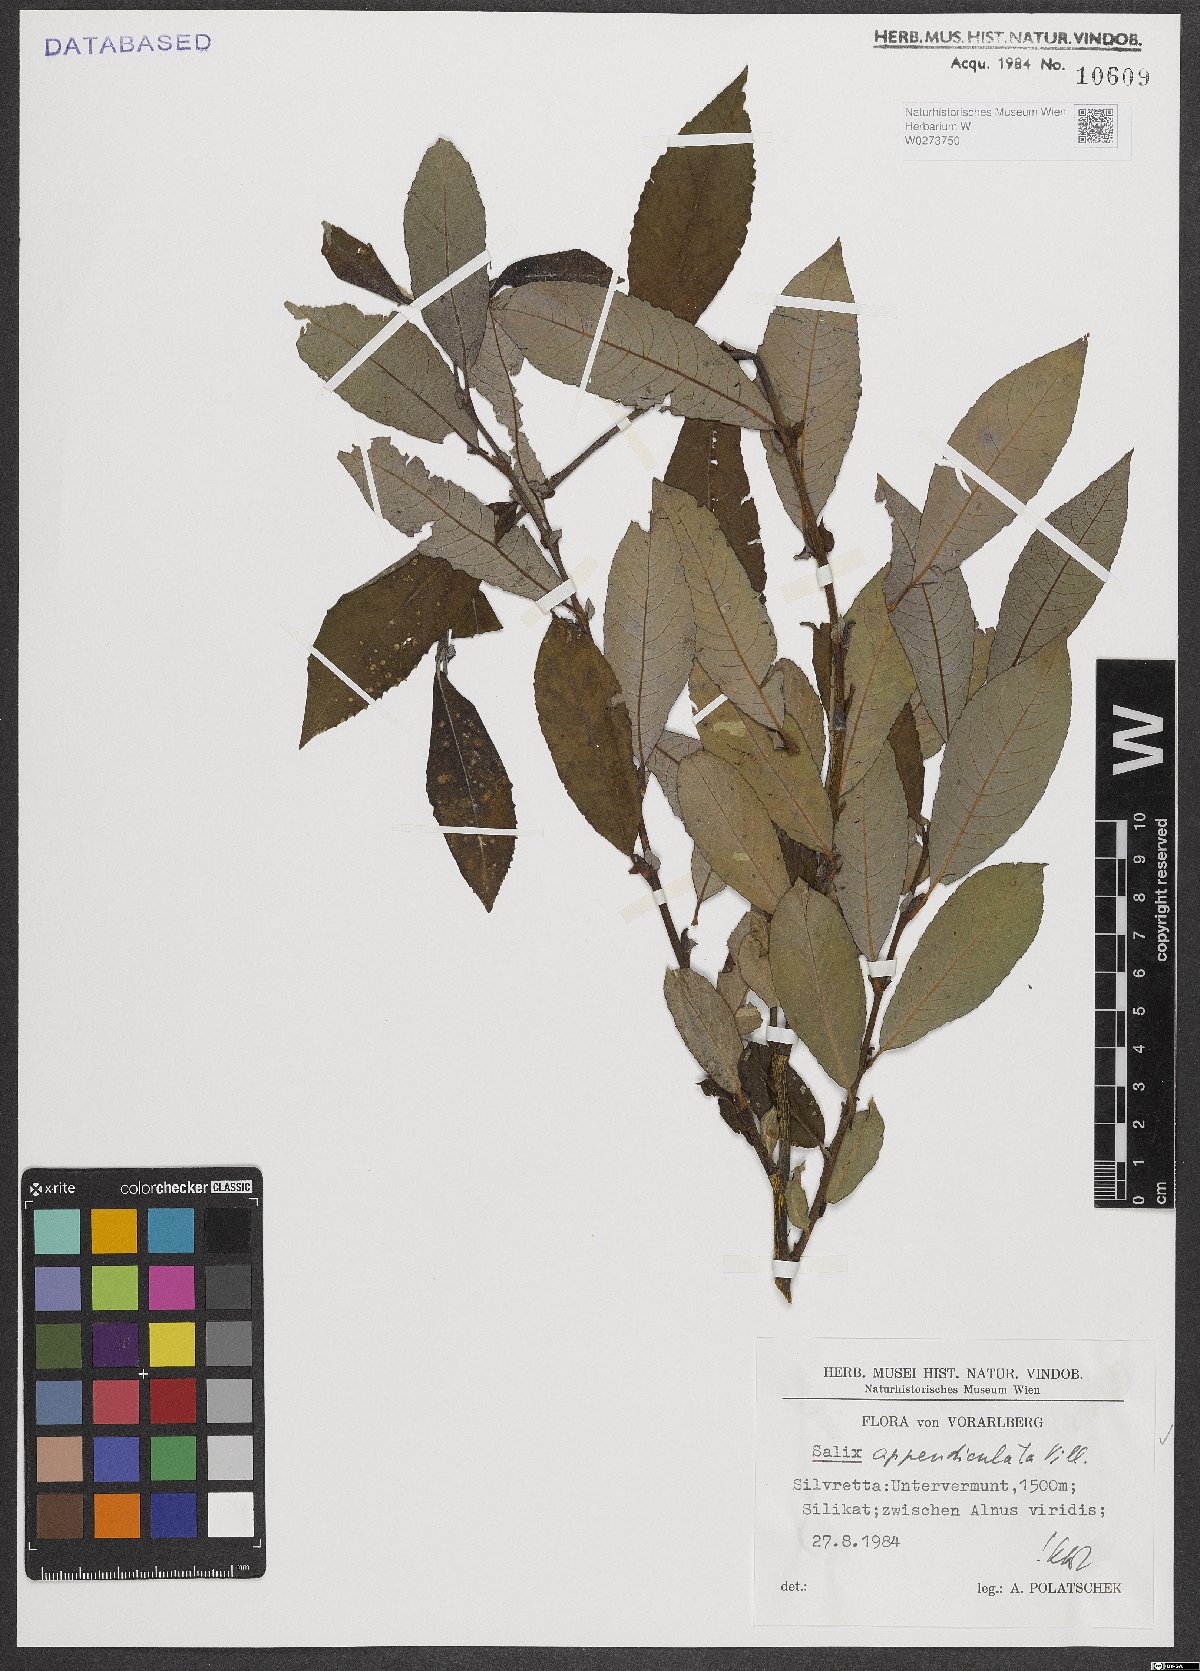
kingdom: Plantae
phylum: Tracheophyta
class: Magnoliopsida
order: Malpighiales
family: Salicaceae
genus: Salix
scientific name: Salix appendiculata
